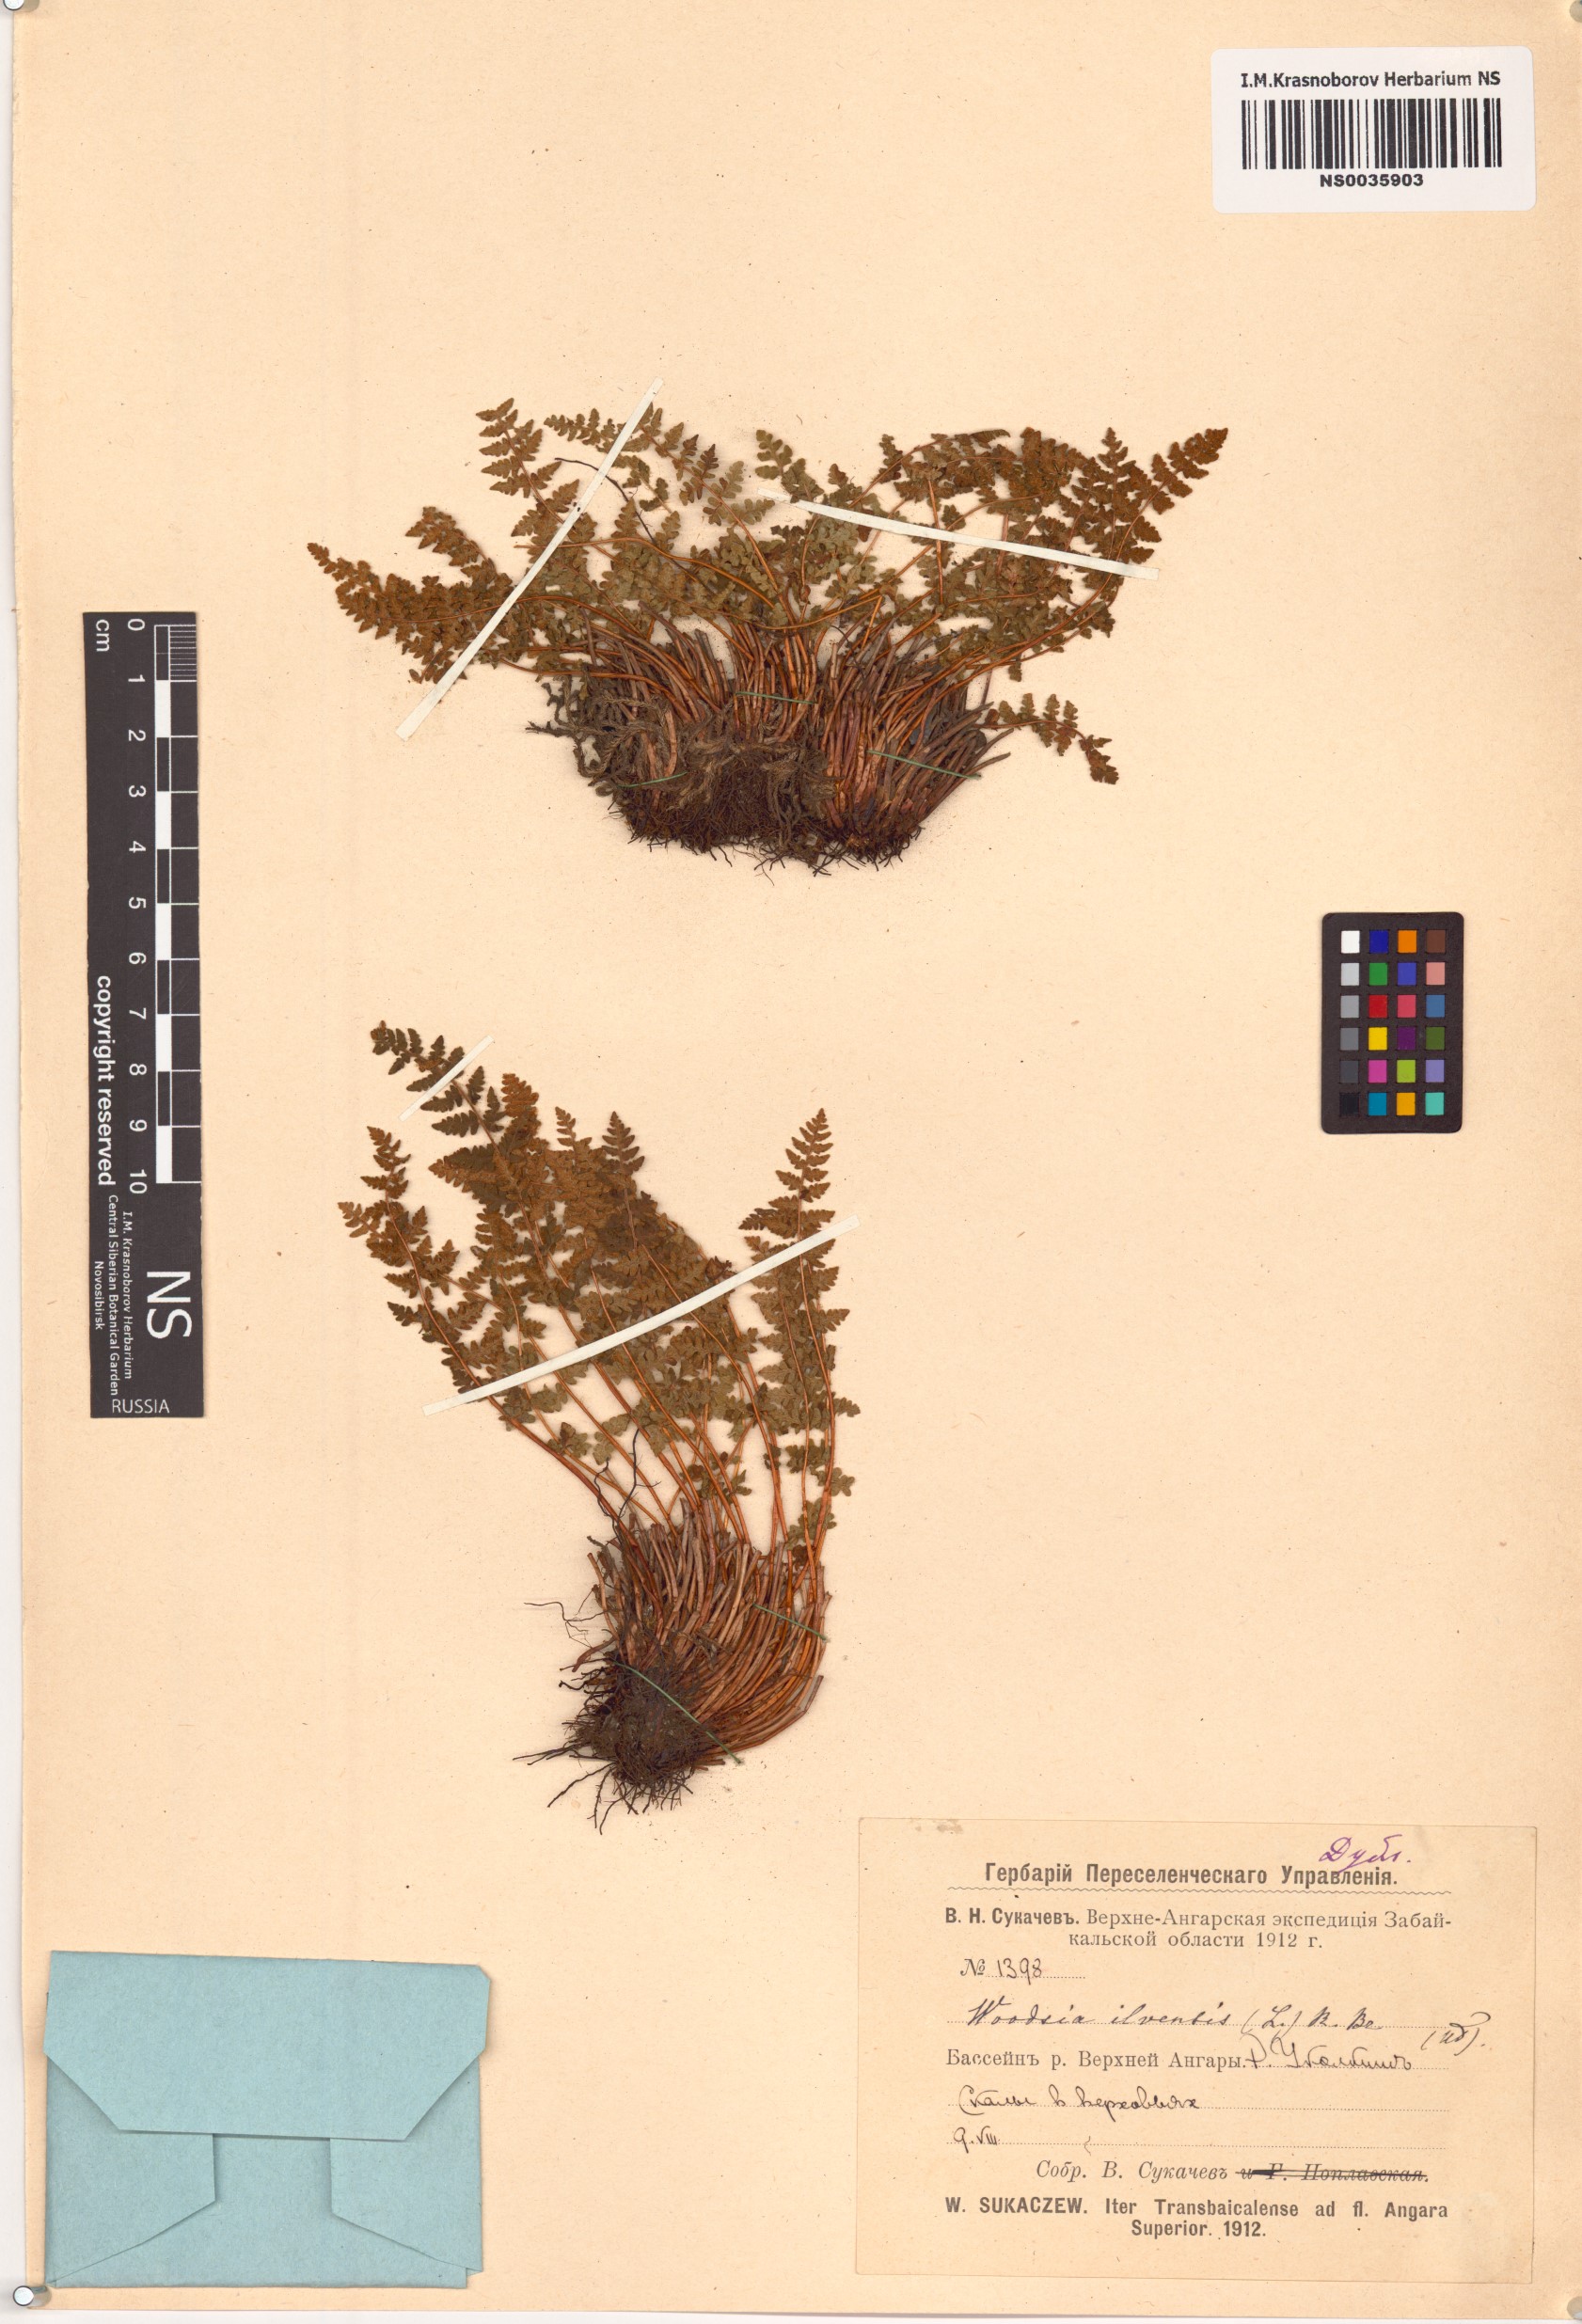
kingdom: Plantae
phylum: Tracheophyta
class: Polypodiopsida
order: Polypodiales
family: Woodsiaceae
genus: Woodsia
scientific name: Woodsia ilvensis
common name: Fragrant woodsia
